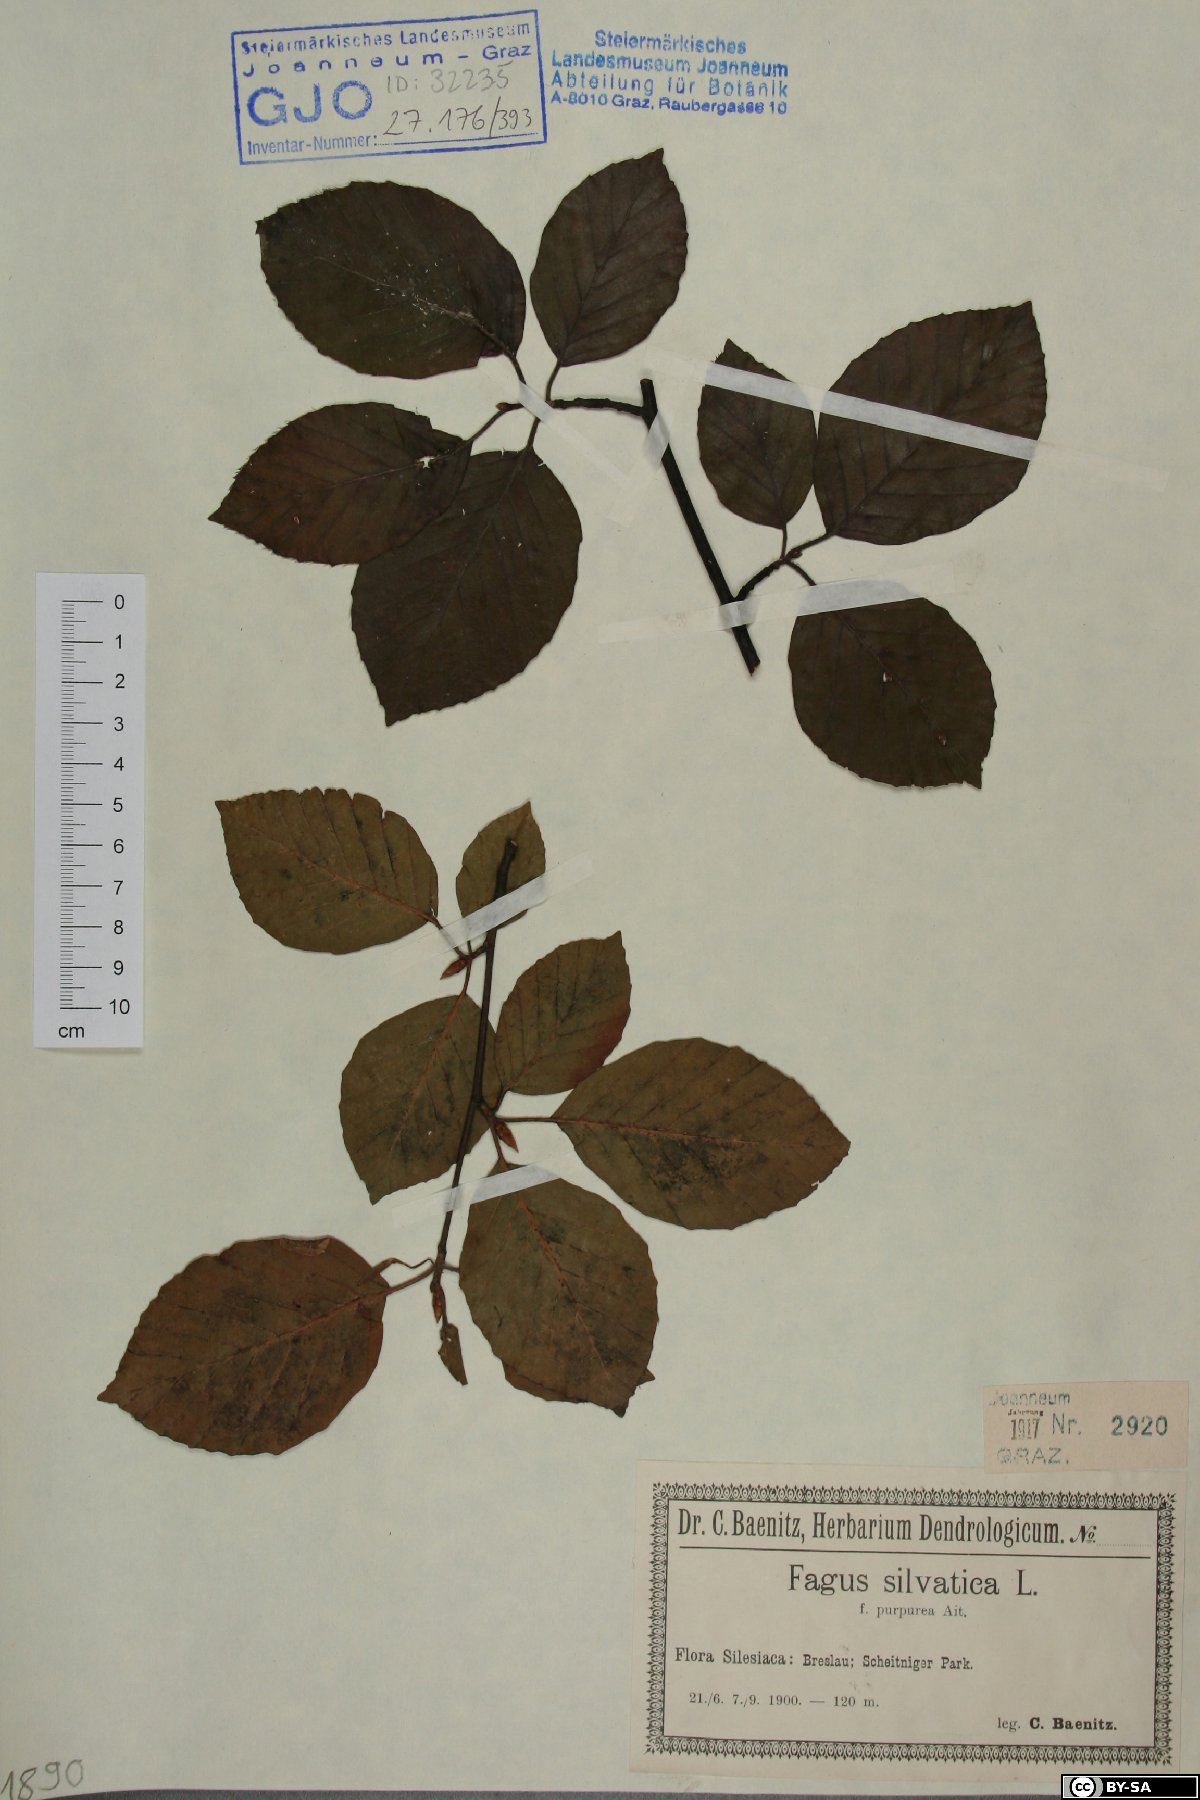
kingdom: Plantae
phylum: Tracheophyta
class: Magnoliopsida
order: Fagales
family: Fagaceae
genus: Fagus
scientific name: Fagus sylvatica
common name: Beech
